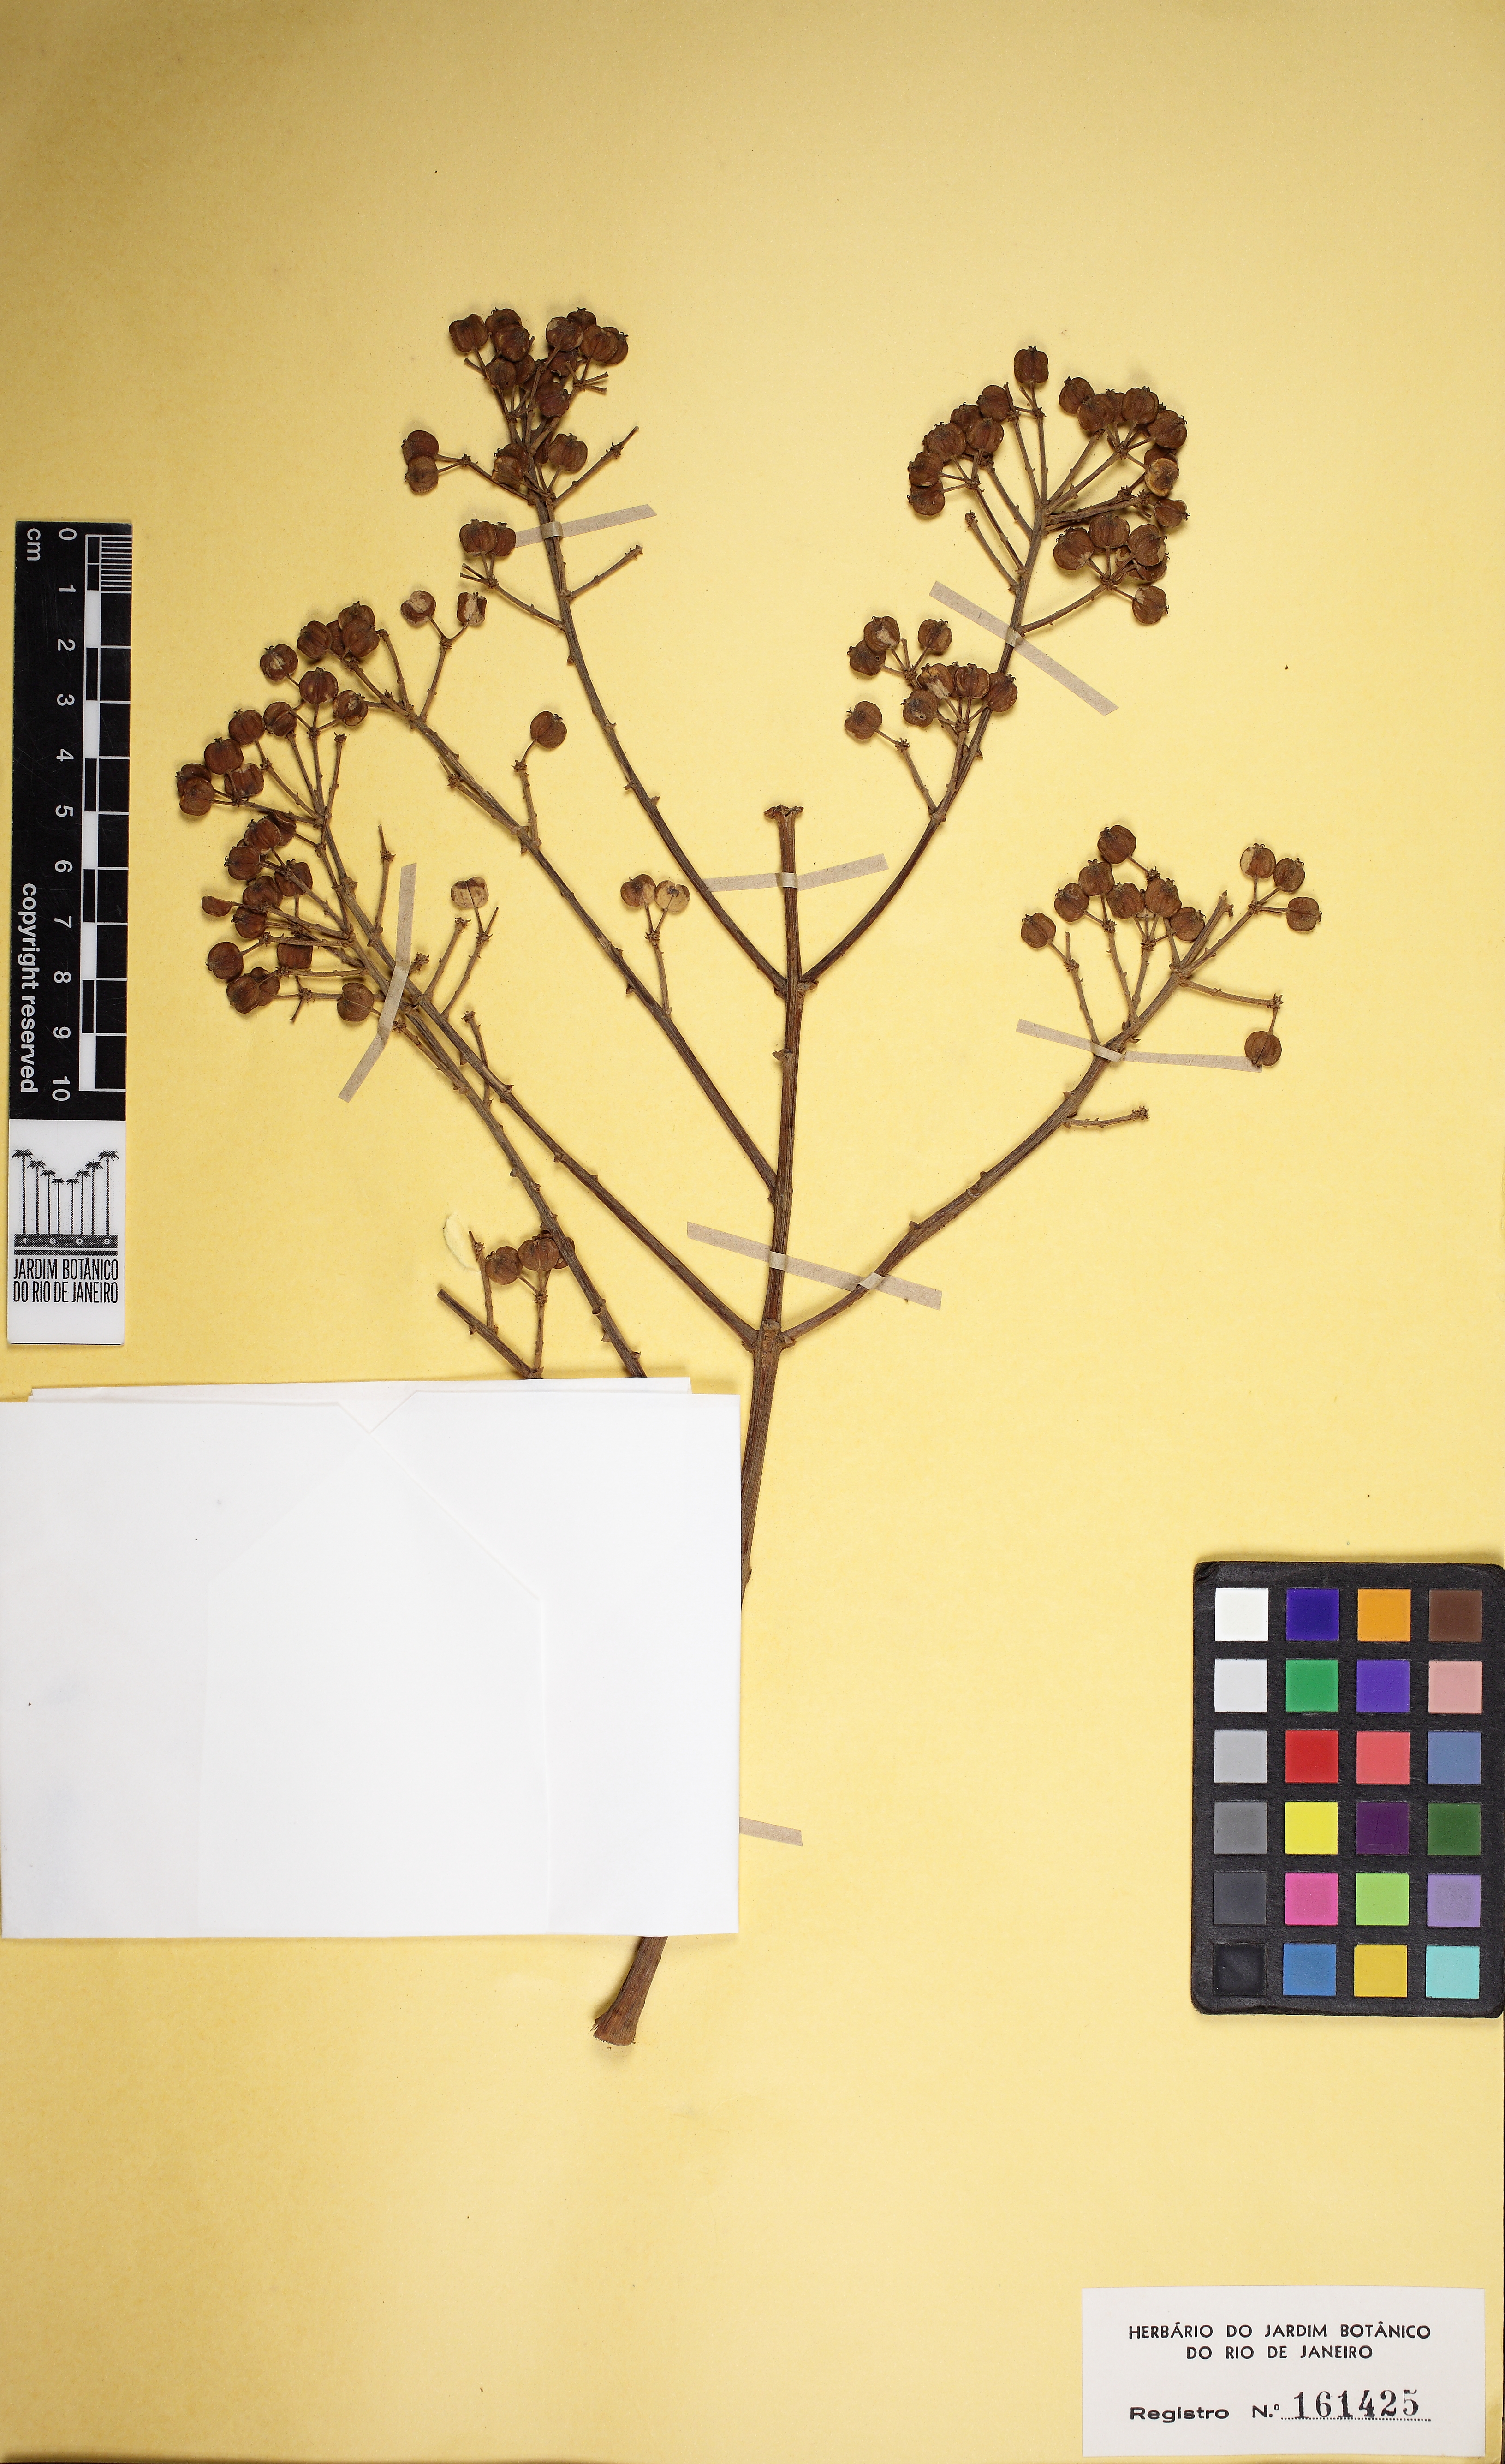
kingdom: Plantae
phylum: Tracheophyta
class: Magnoliopsida
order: Apiales
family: Araliaceae
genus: Didymopanax
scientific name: Didymopanax distractiflorus
